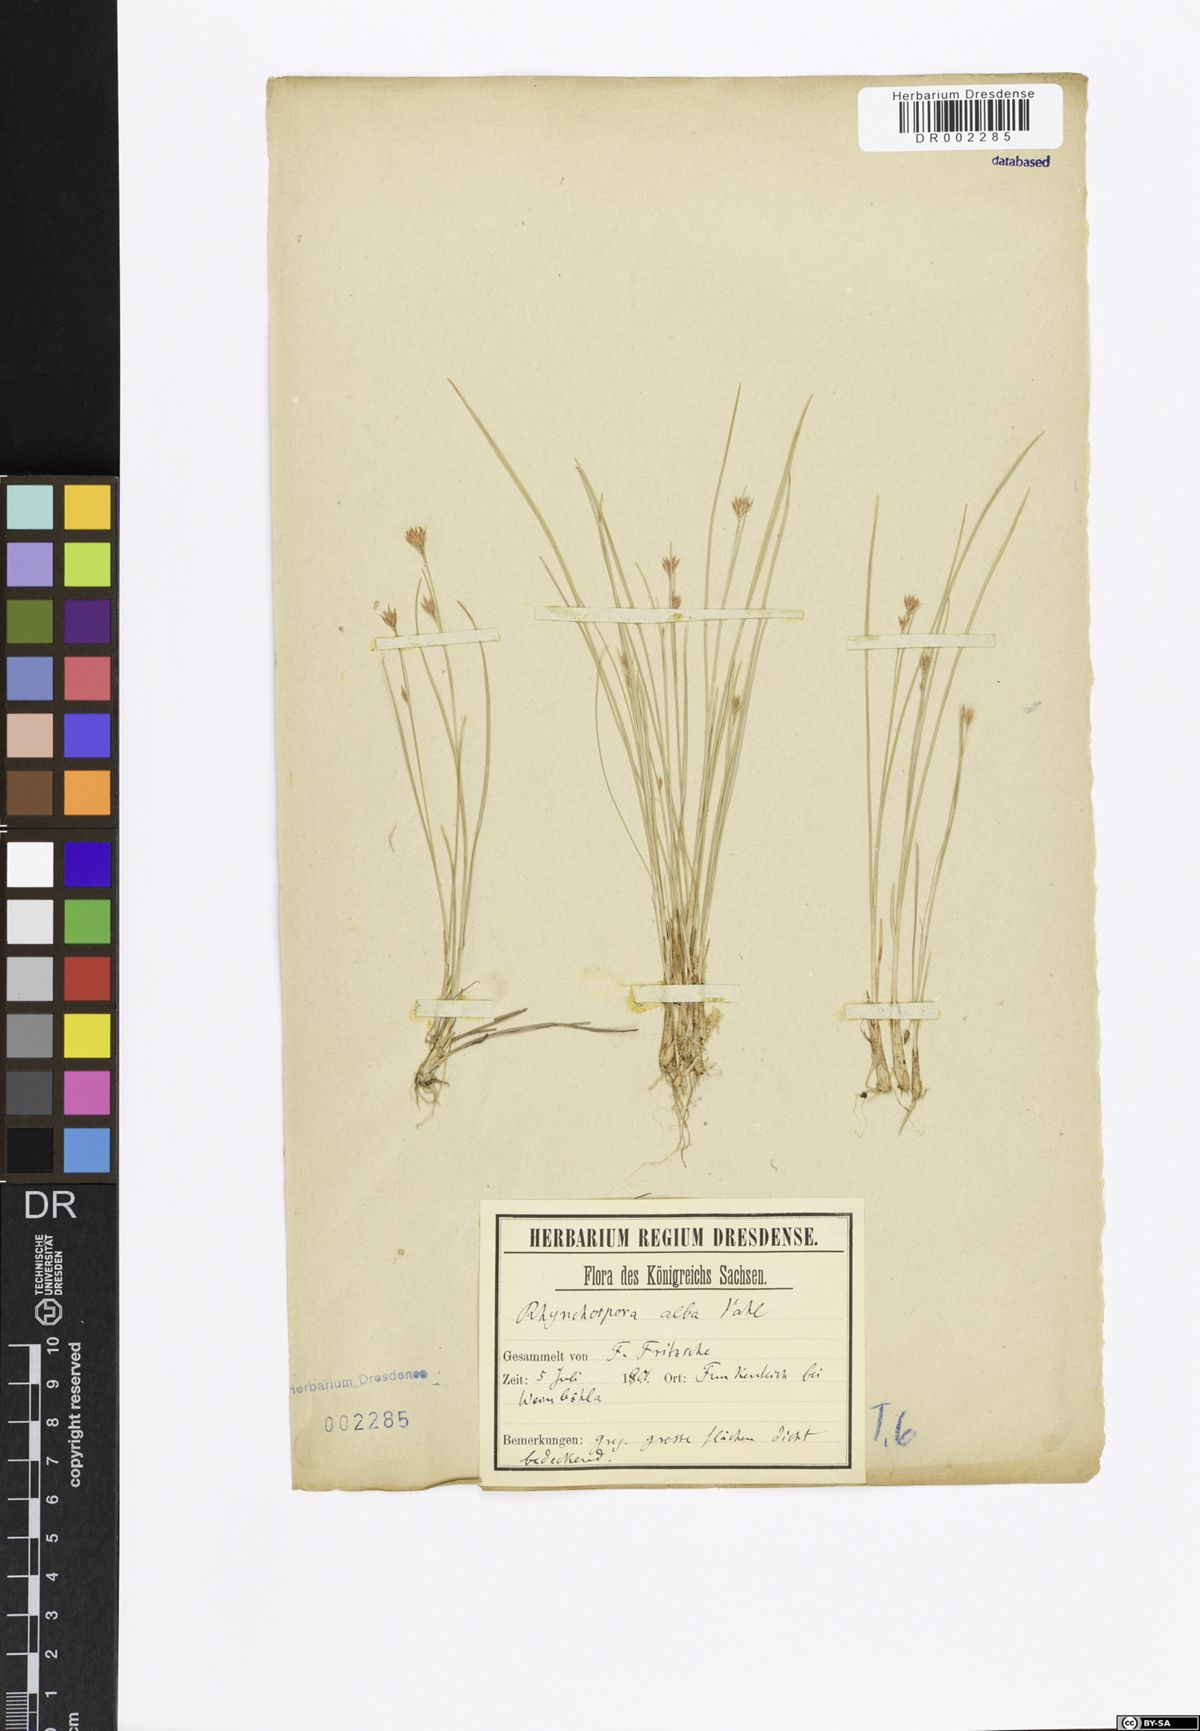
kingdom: Plantae
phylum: Tracheophyta
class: Liliopsida
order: Poales
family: Cyperaceae
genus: Rhynchospora
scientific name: Rhynchospora alba
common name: White beak-sedge
